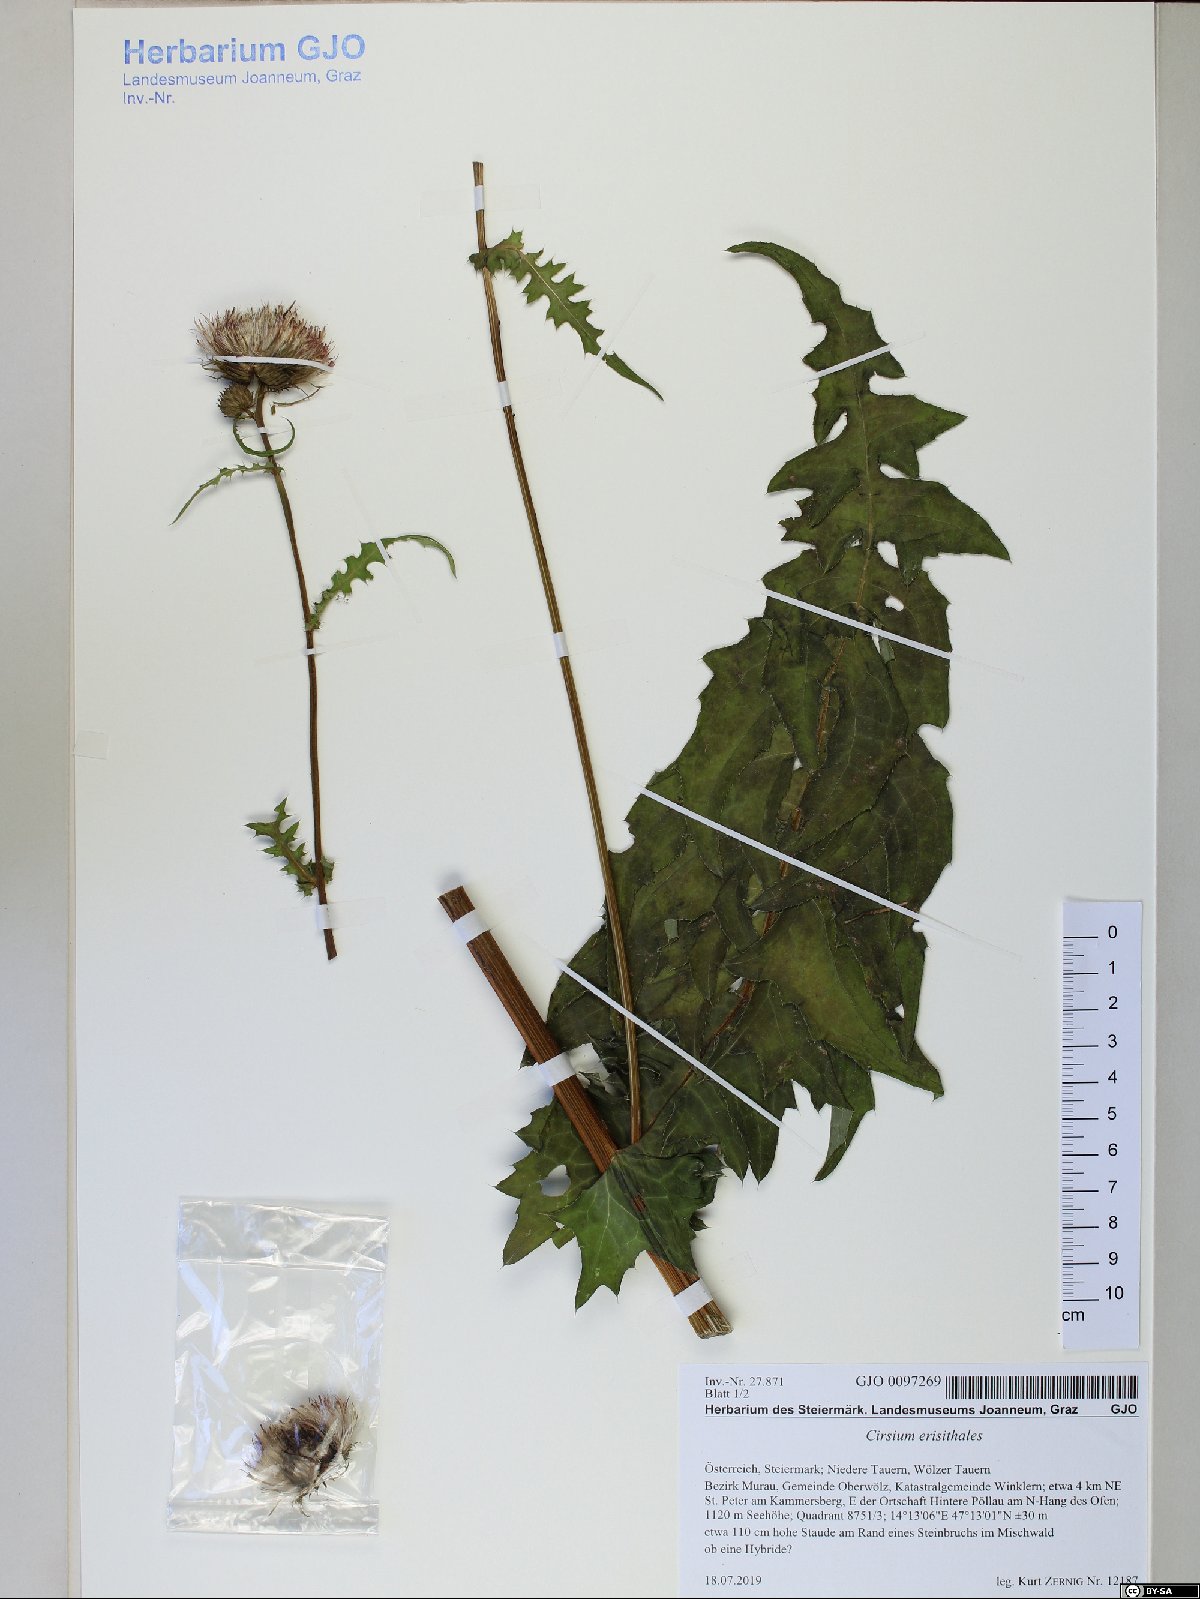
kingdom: Plantae
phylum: Tracheophyta
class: Magnoliopsida
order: Asterales
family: Asteraceae
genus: Cirsium
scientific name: Cirsium erisithales
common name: Yellow thistle
